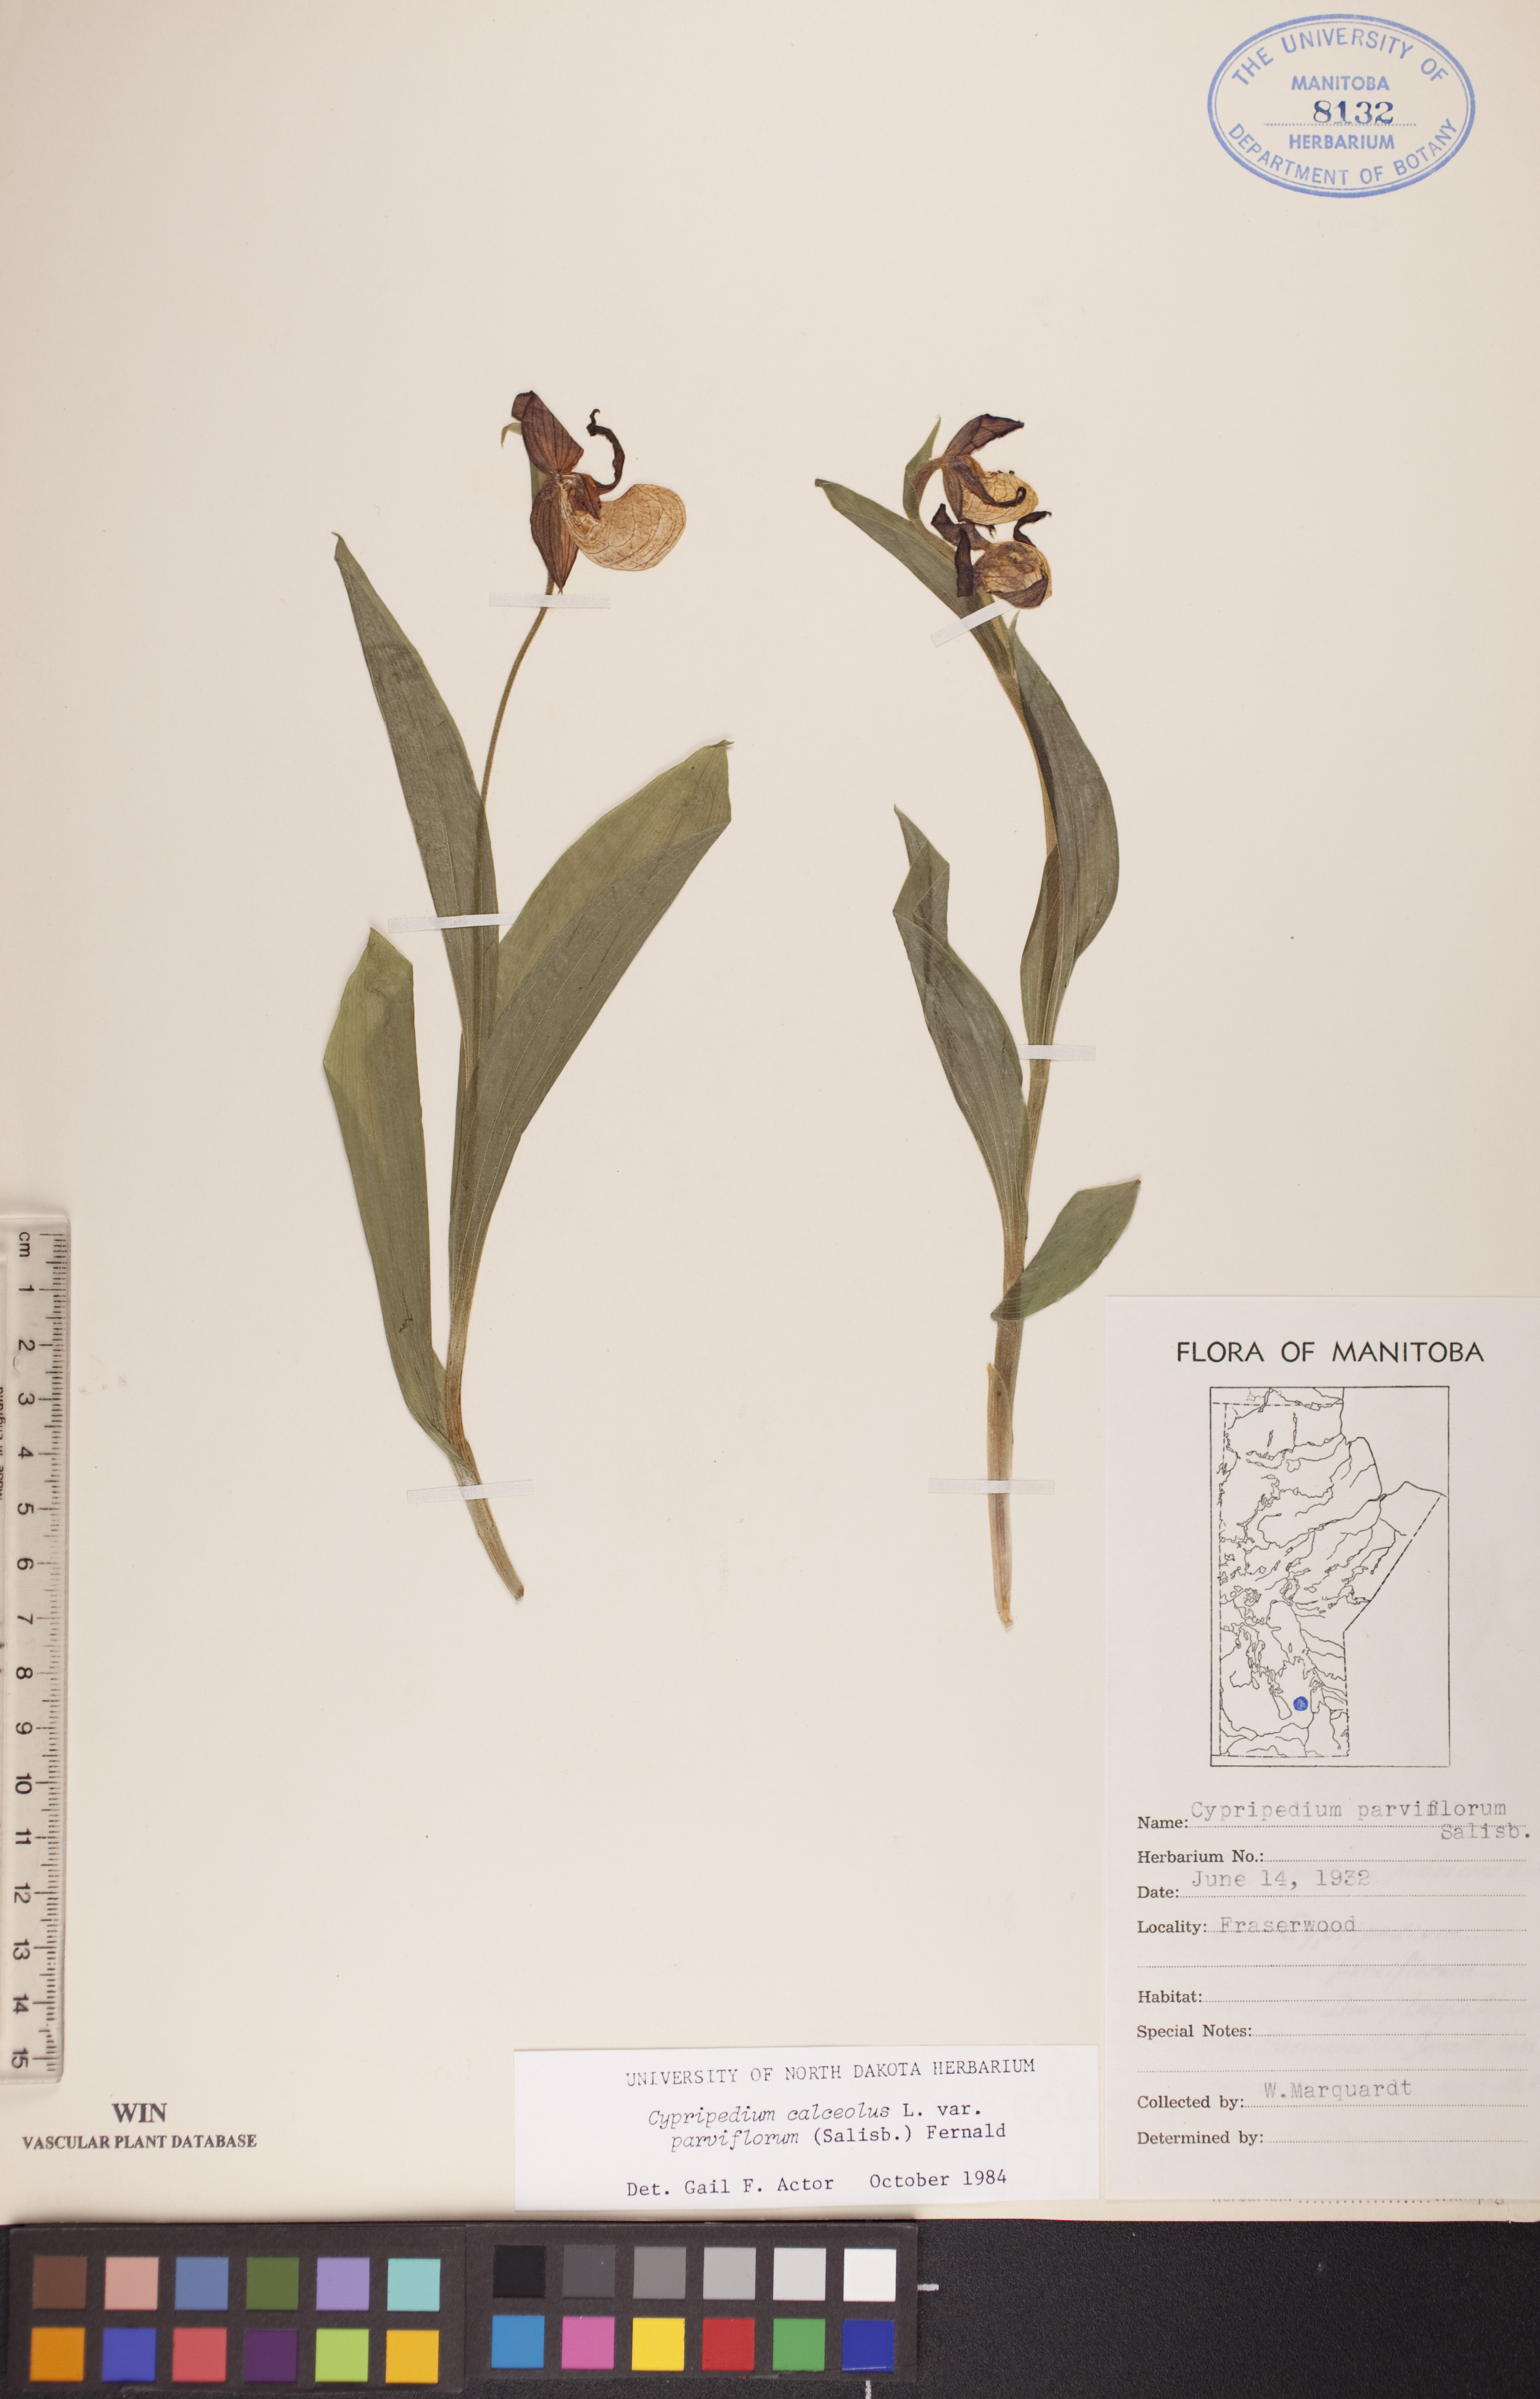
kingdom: Plantae
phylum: Tracheophyta
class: Liliopsida
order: Asparagales
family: Orchidaceae
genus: Cypripedium
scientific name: Cypripedium parviflorum
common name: American yellow lady's-slipper
